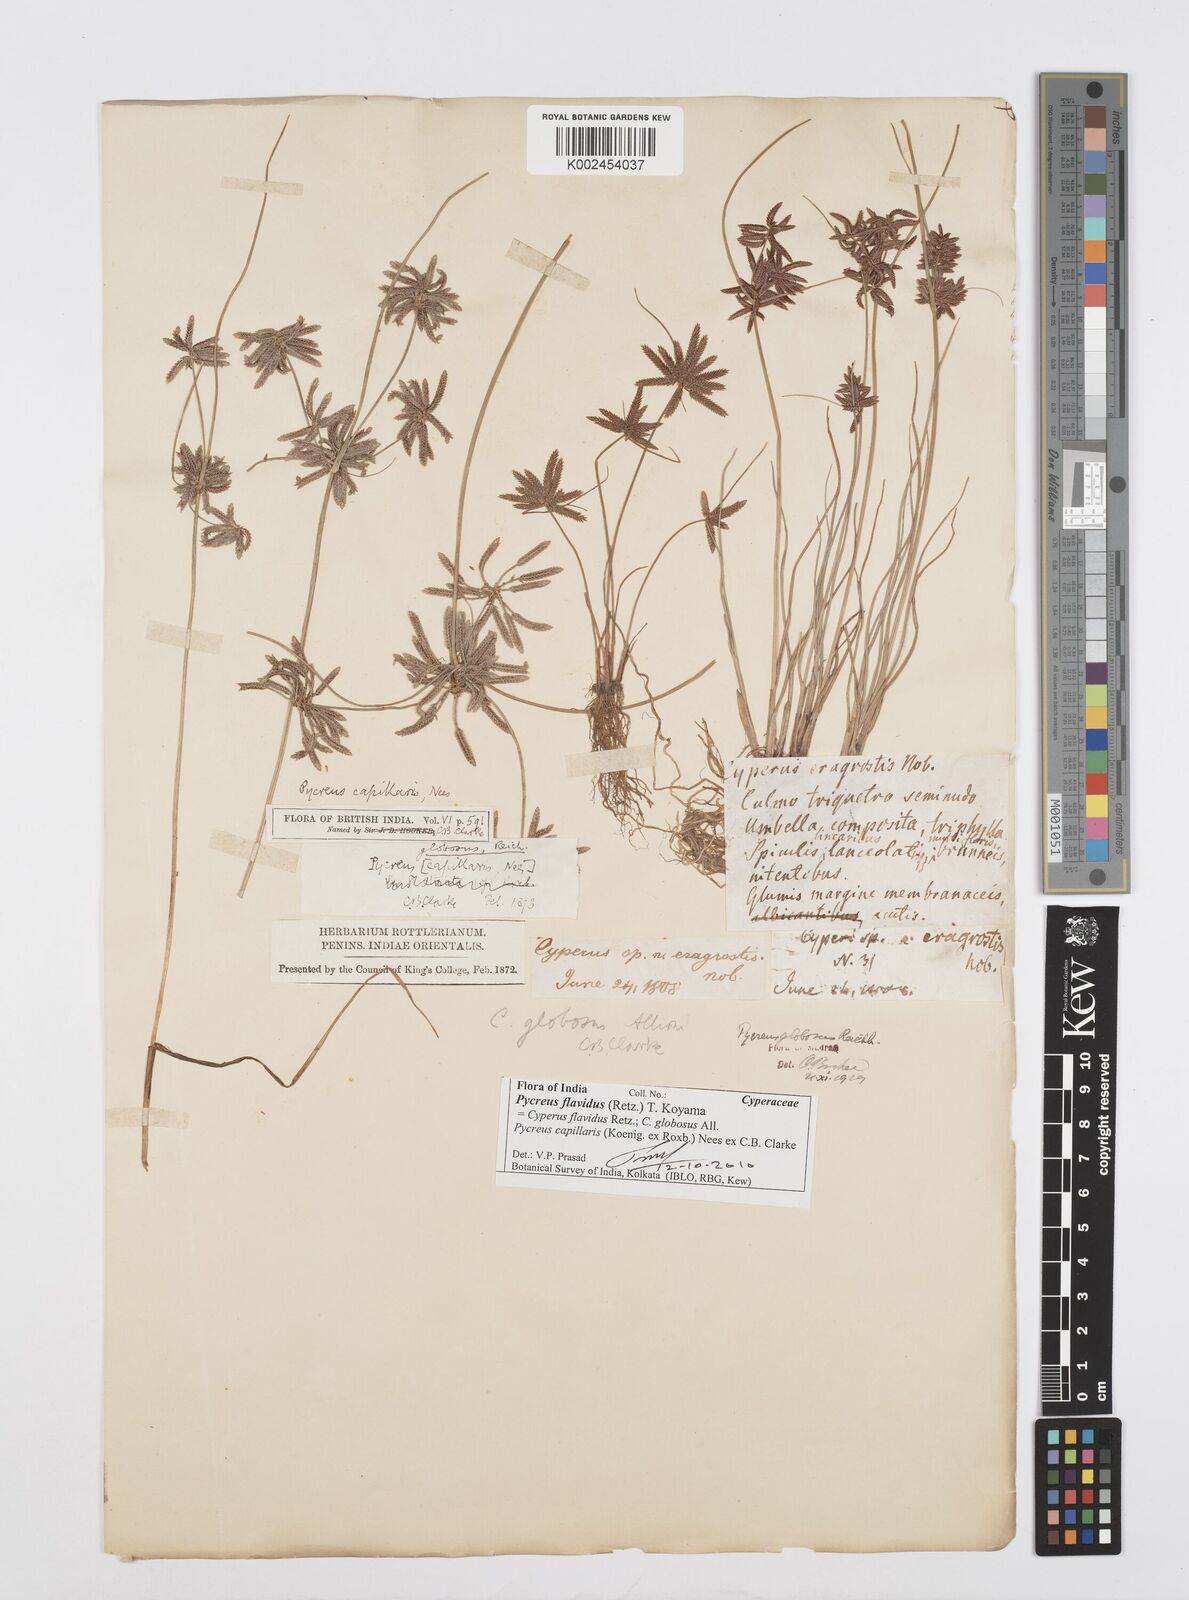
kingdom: Plantae
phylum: Tracheophyta
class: Liliopsida
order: Poales
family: Cyperaceae
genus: Cyperus
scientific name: Cyperus flavidus
